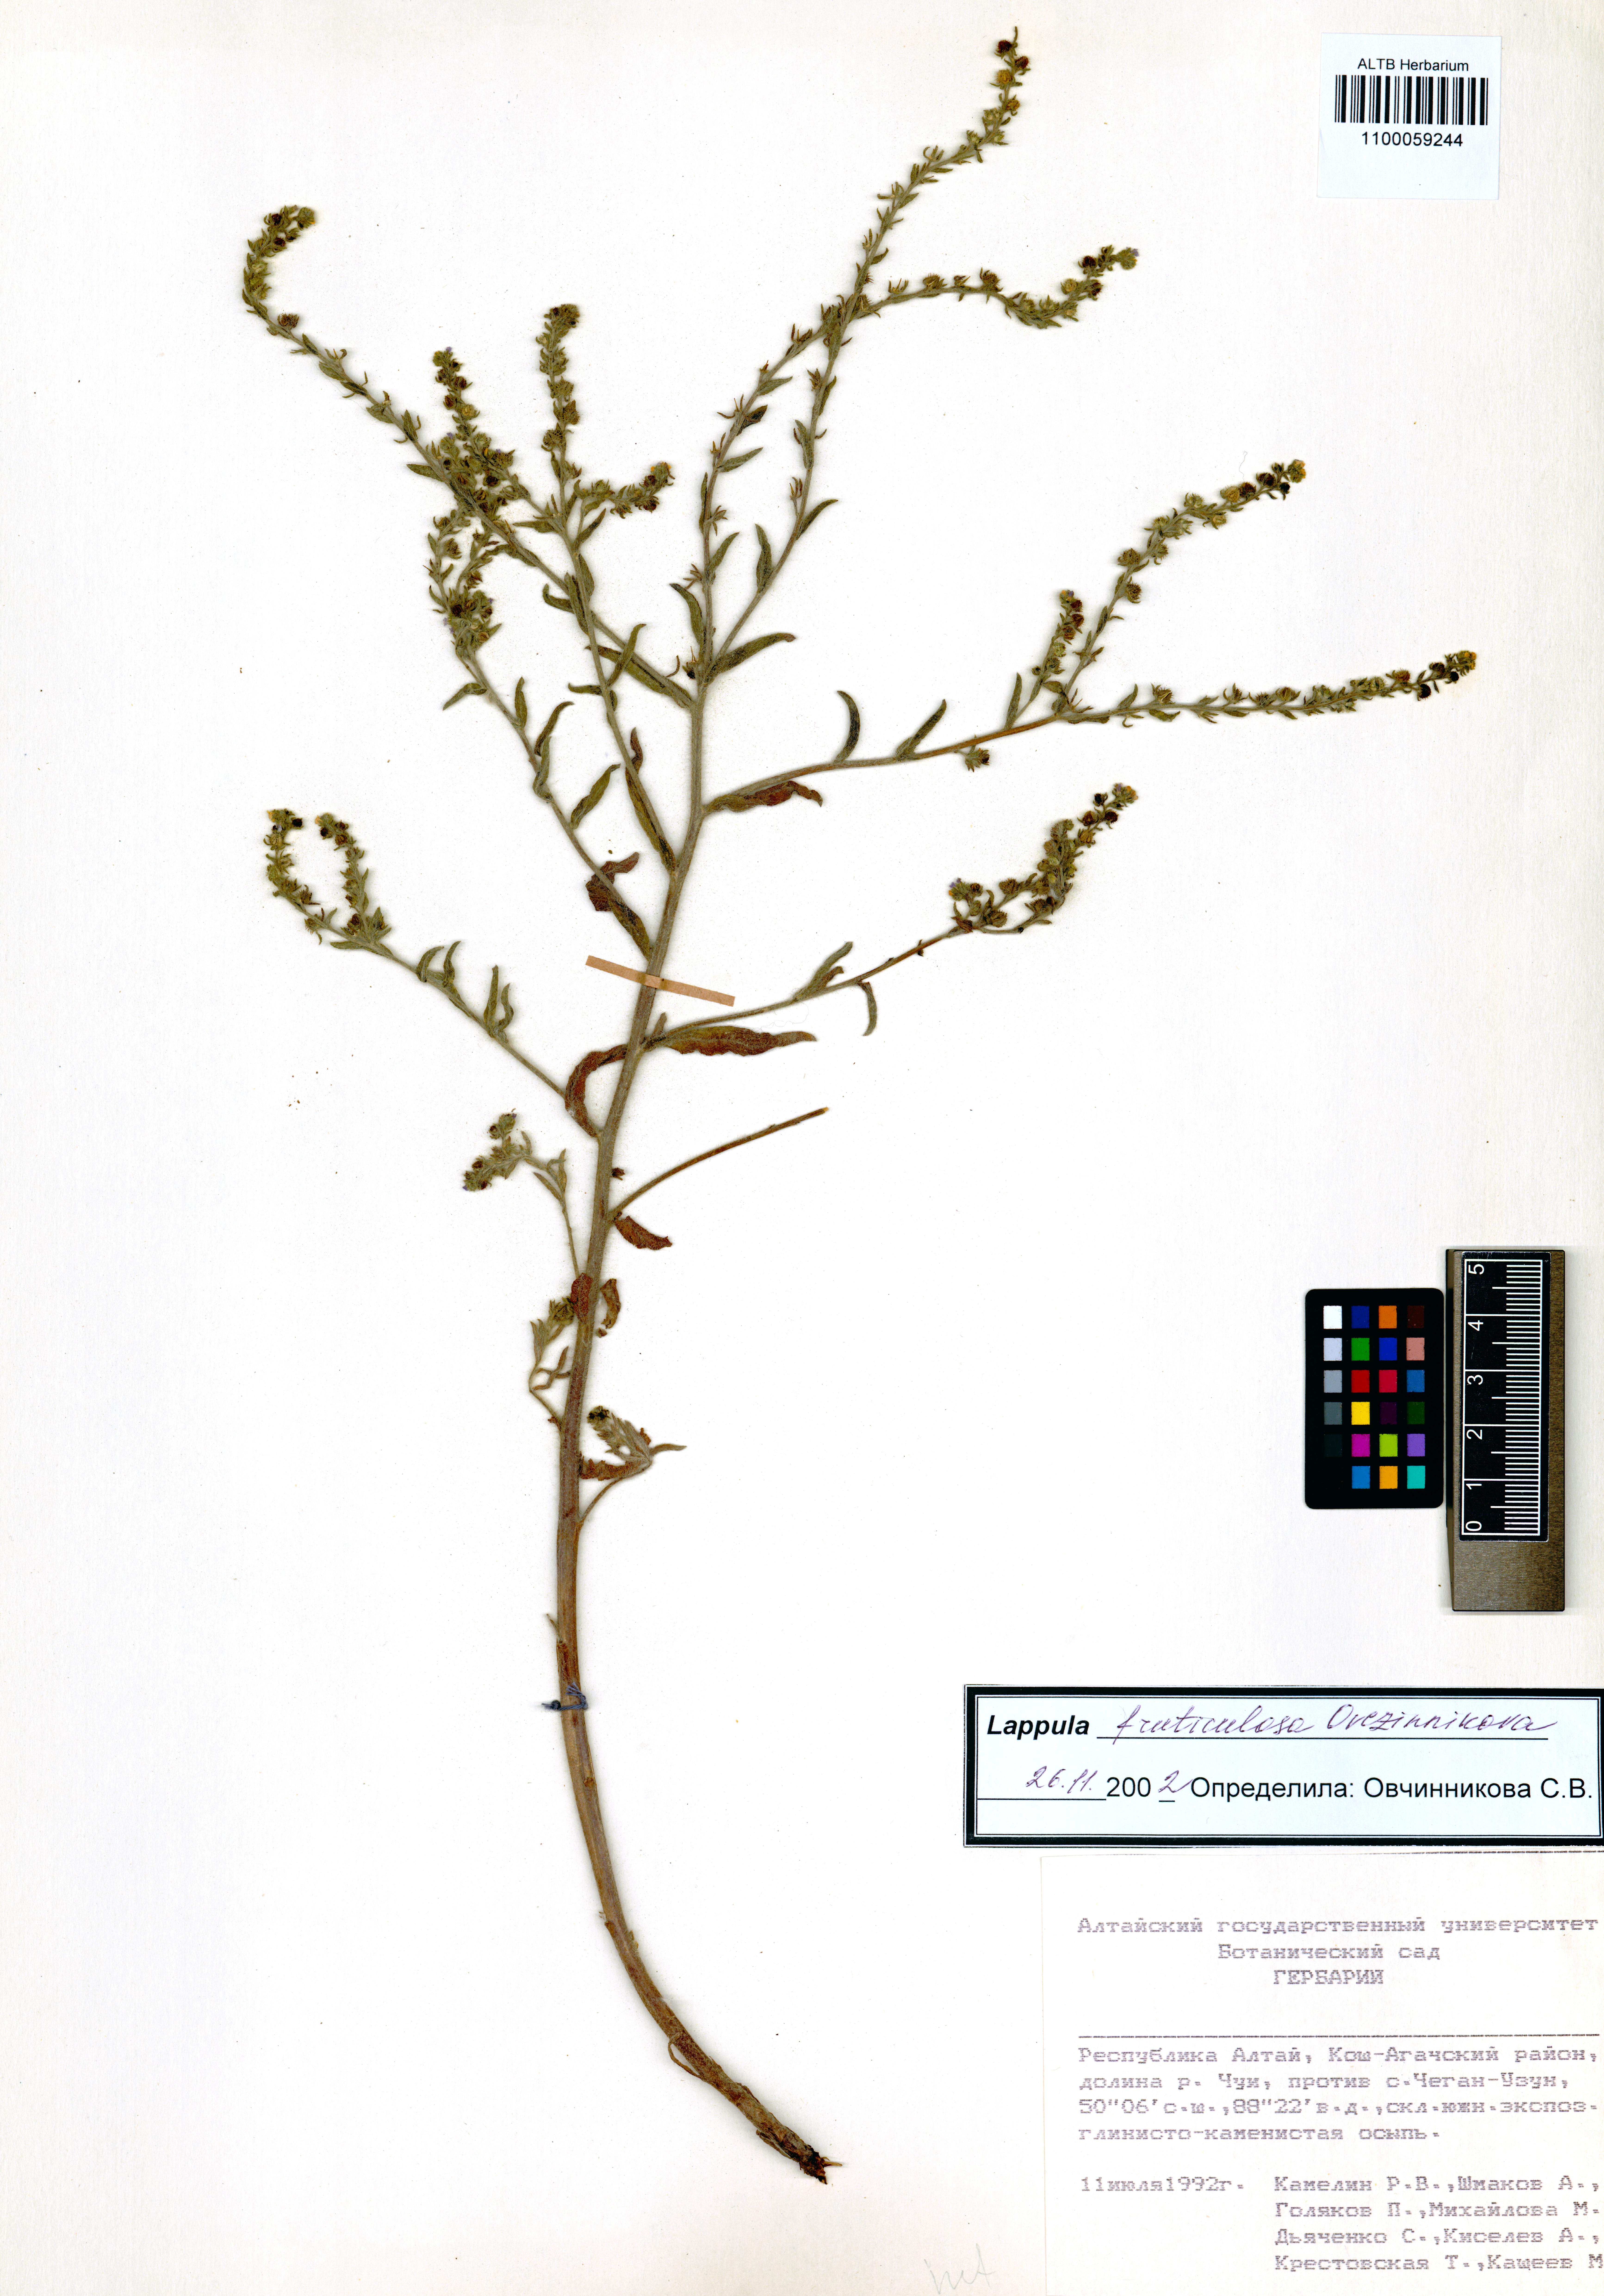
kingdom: Plantae
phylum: Tracheophyta
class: Magnoliopsida
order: Boraginales
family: Boraginaceae
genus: Lappula
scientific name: Lappula fruticulosa
